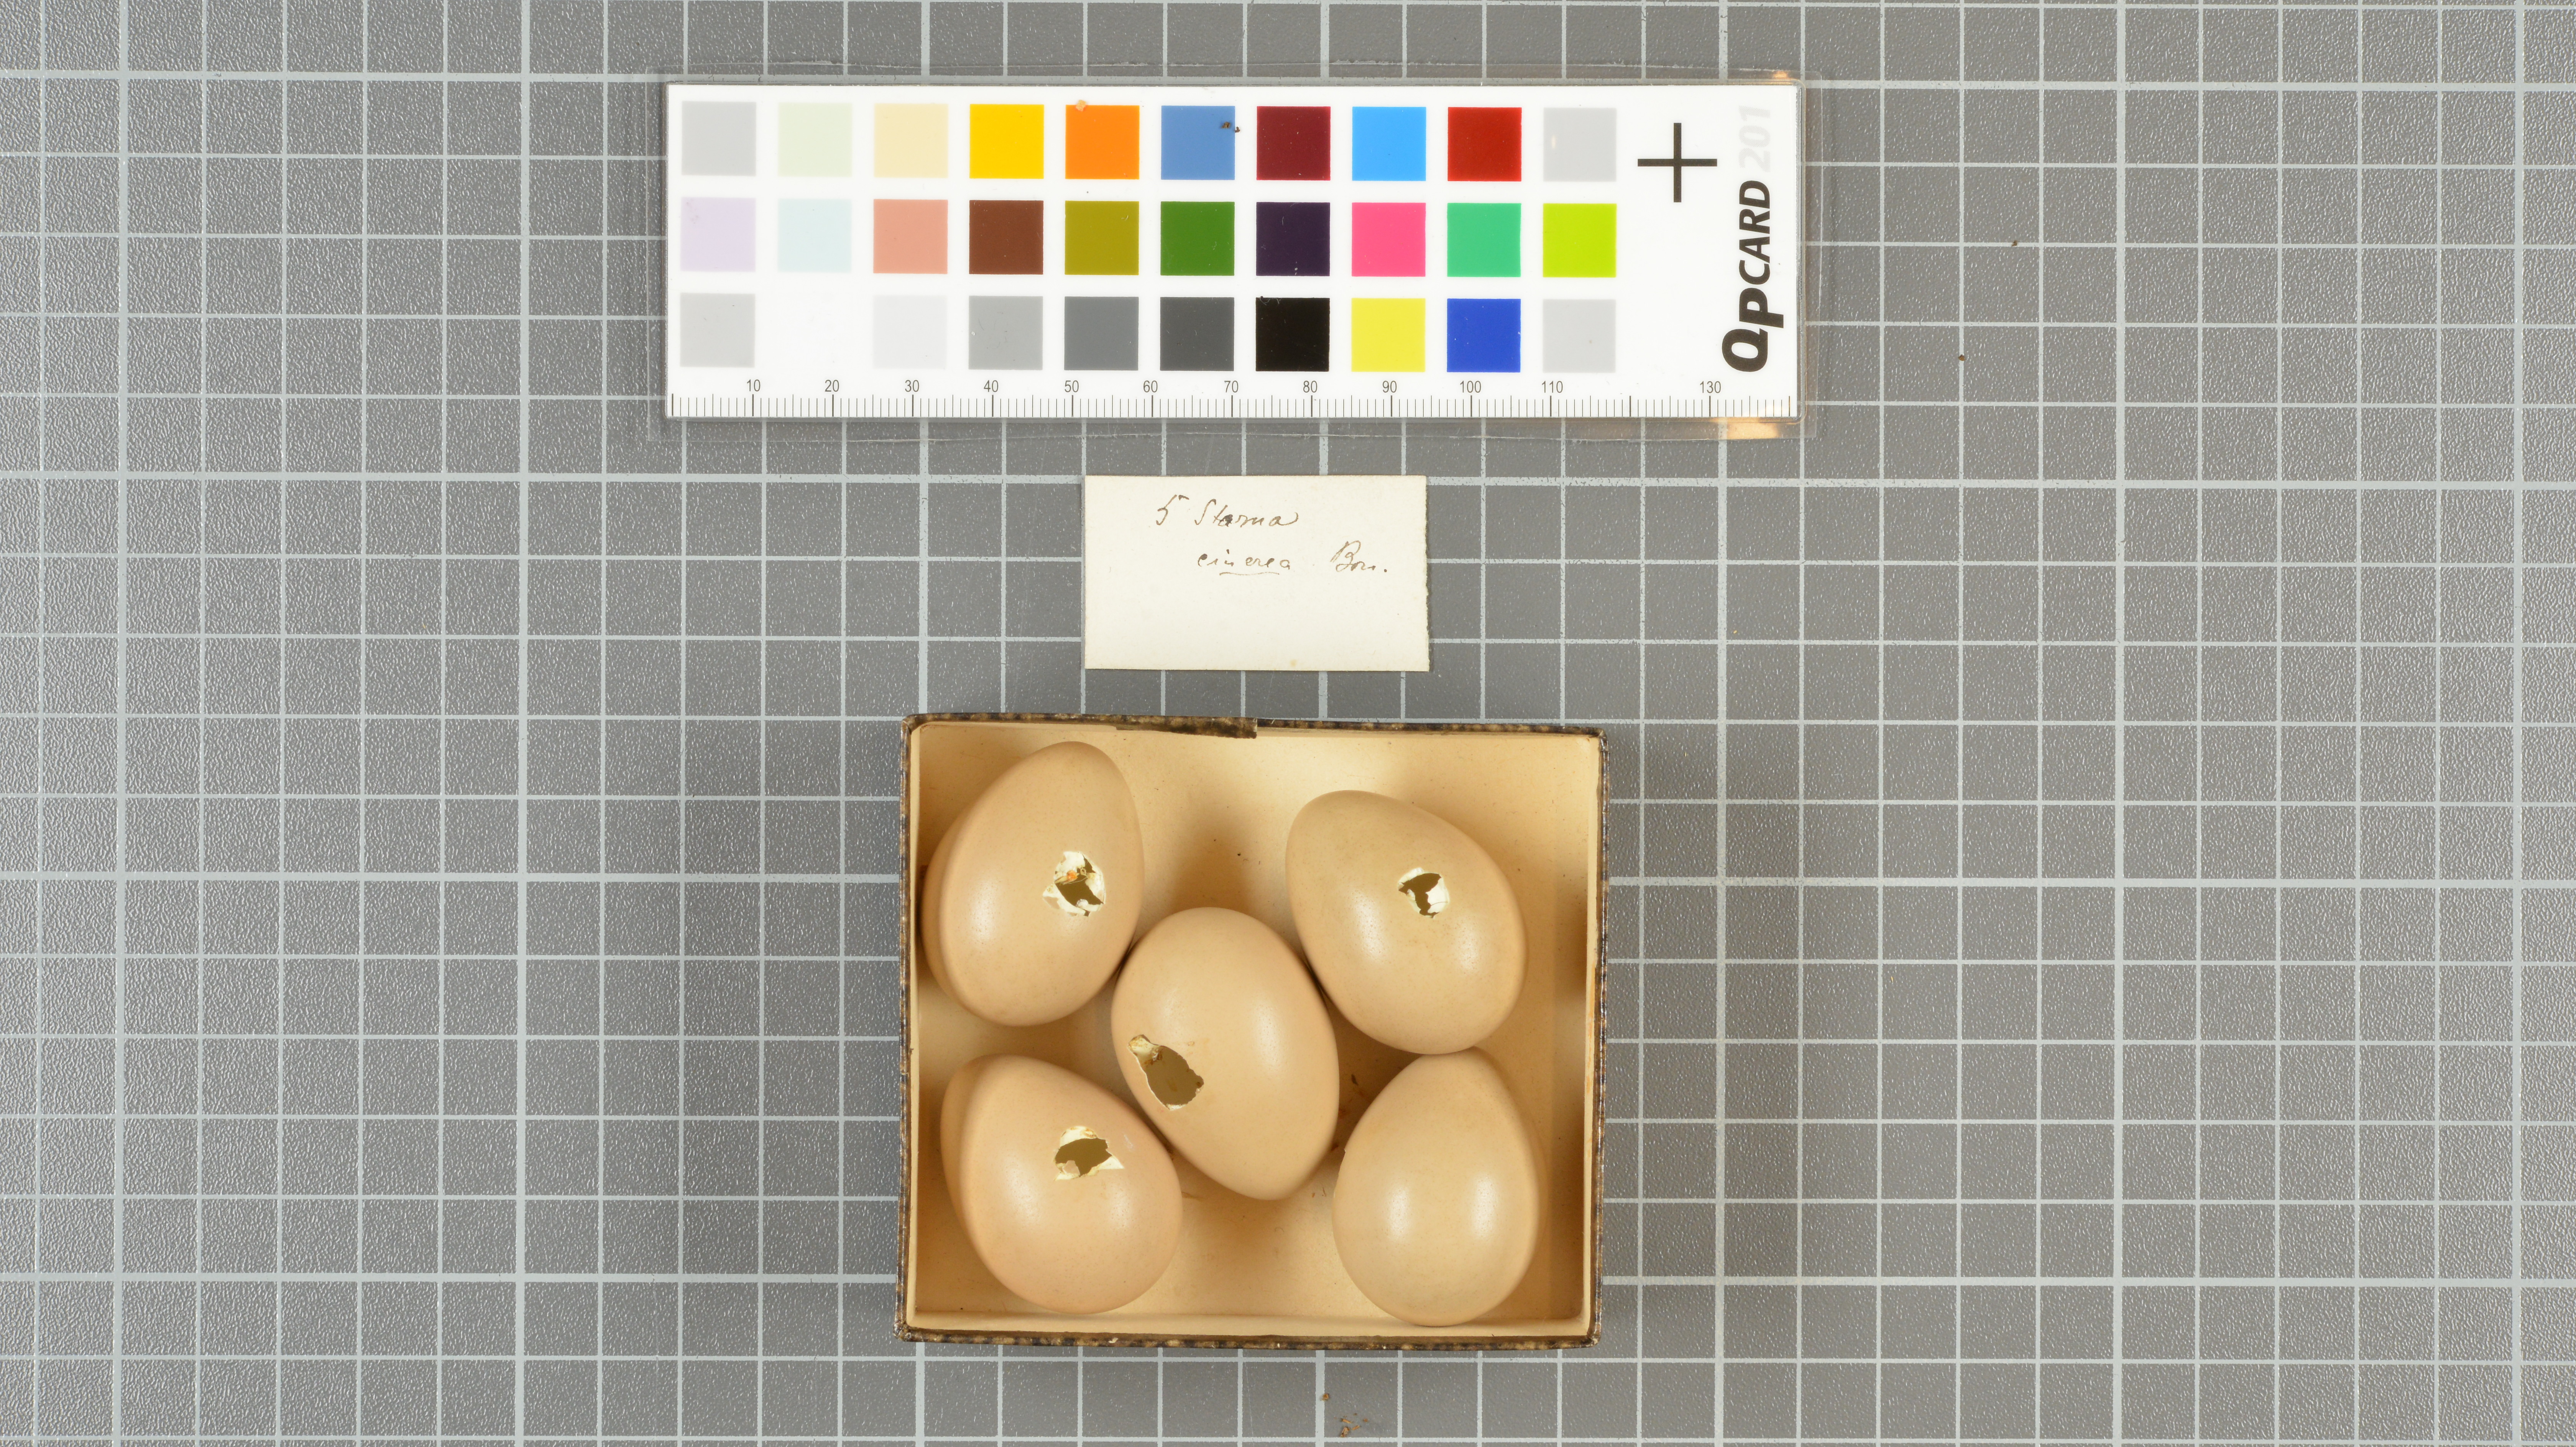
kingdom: Animalia
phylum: Chordata
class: Aves
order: Charadriiformes
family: Laridae
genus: Chlidonias
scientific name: Chlidonias niger
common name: Black tern
